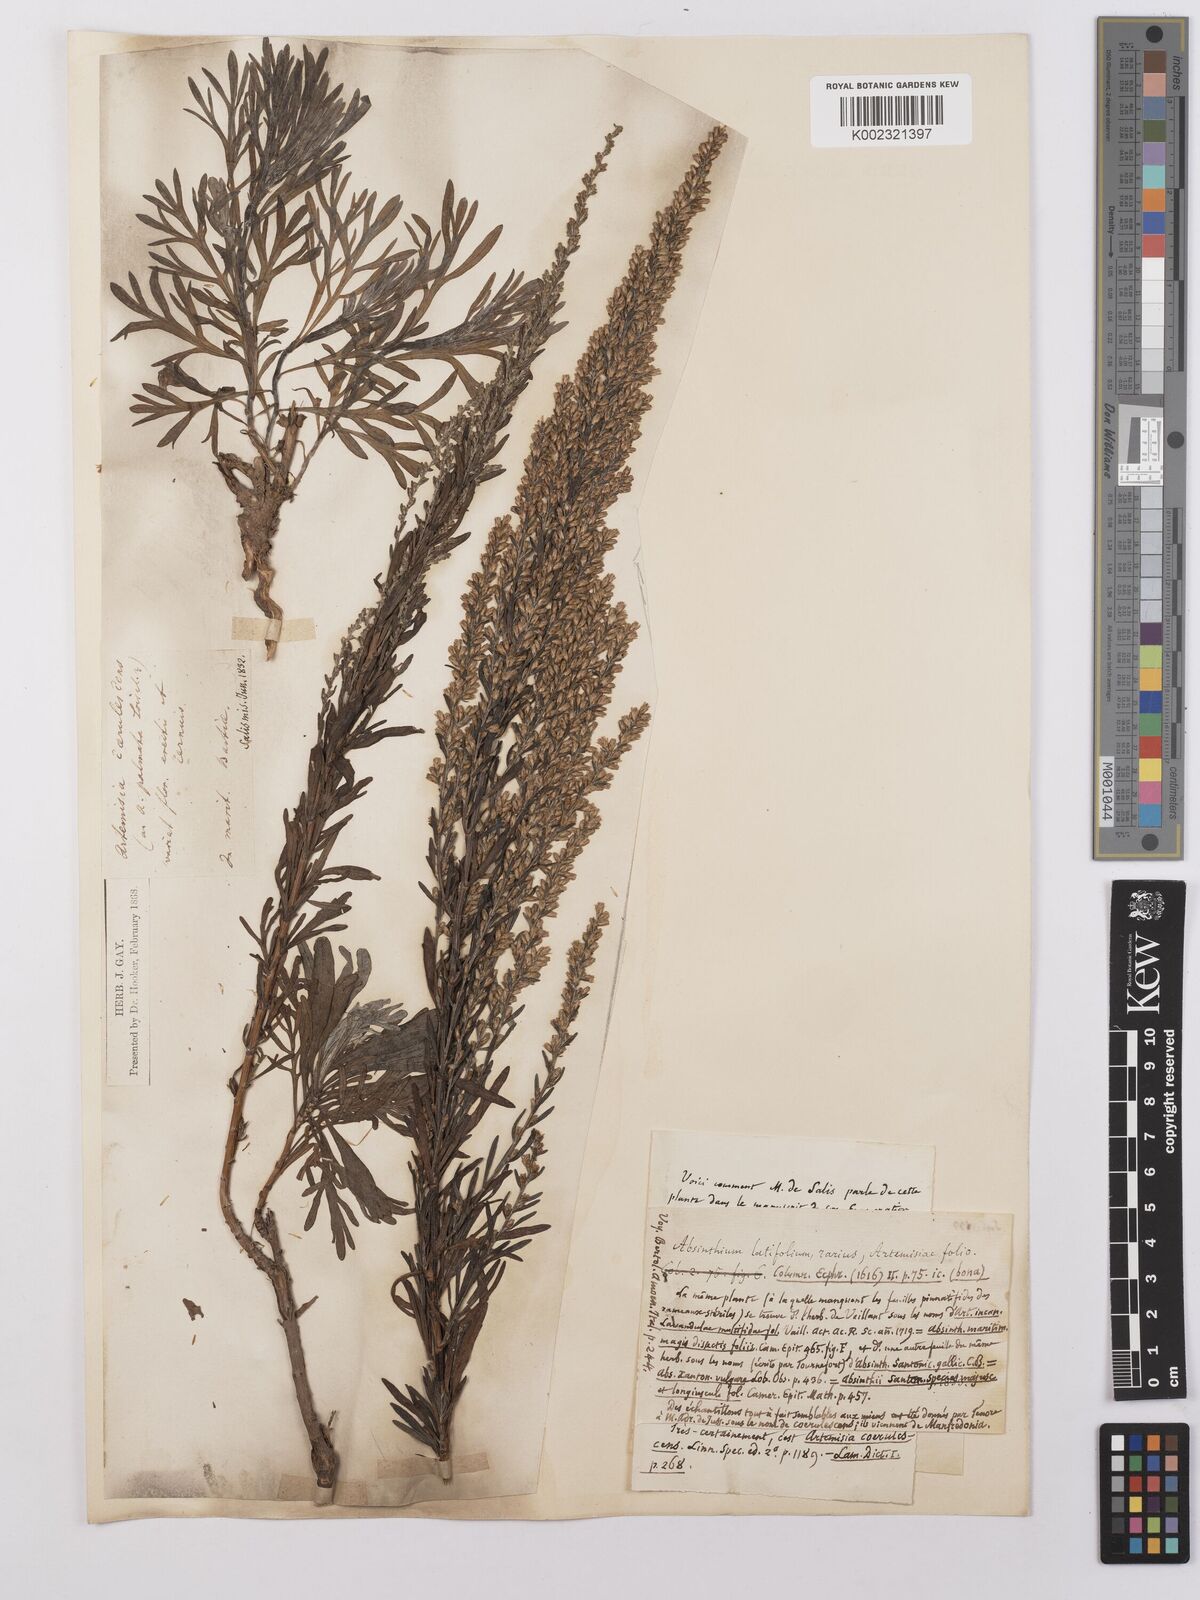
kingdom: Plantae
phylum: Tracheophyta
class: Magnoliopsida
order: Asterales
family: Asteraceae
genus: Artemisia
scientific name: Artemisia caerulescens
